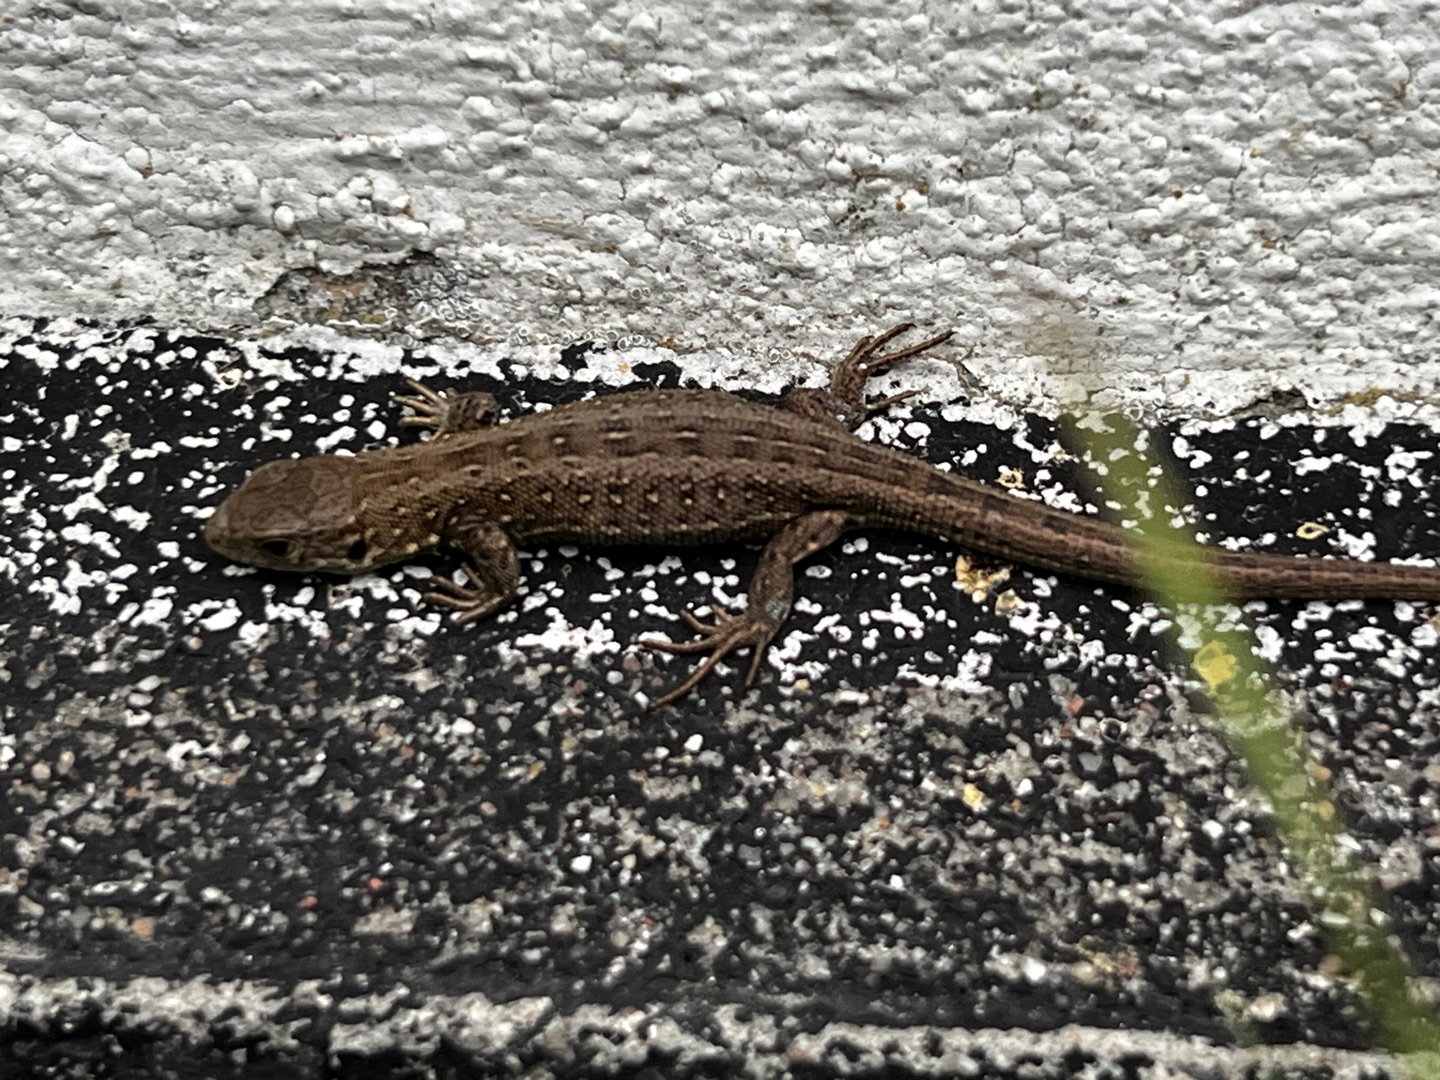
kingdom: Animalia
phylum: Chordata
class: Squamata
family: Lacertidae
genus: Lacerta
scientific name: Lacerta agilis
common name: Markfirben
